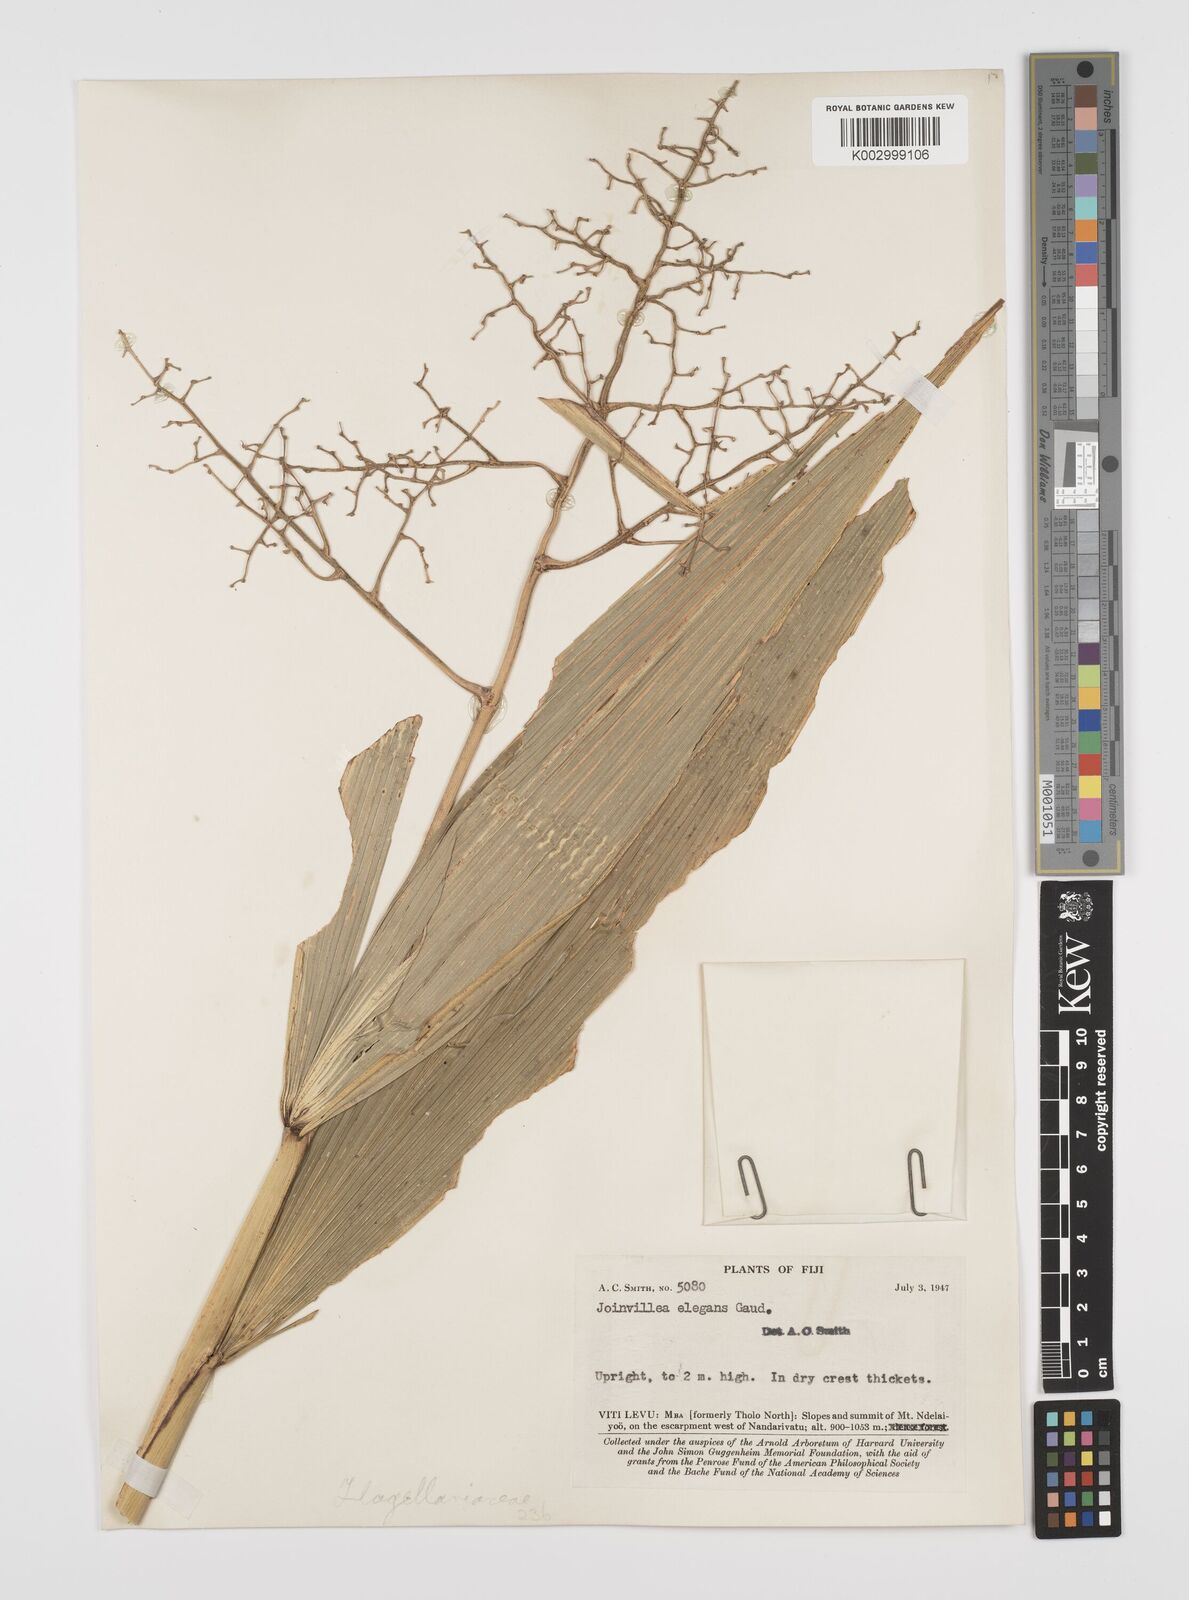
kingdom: Plantae
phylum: Tracheophyta
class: Liliopsida
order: Poales
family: Joinvilleaceae
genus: Joinvillea
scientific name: Joinvillea plicata
